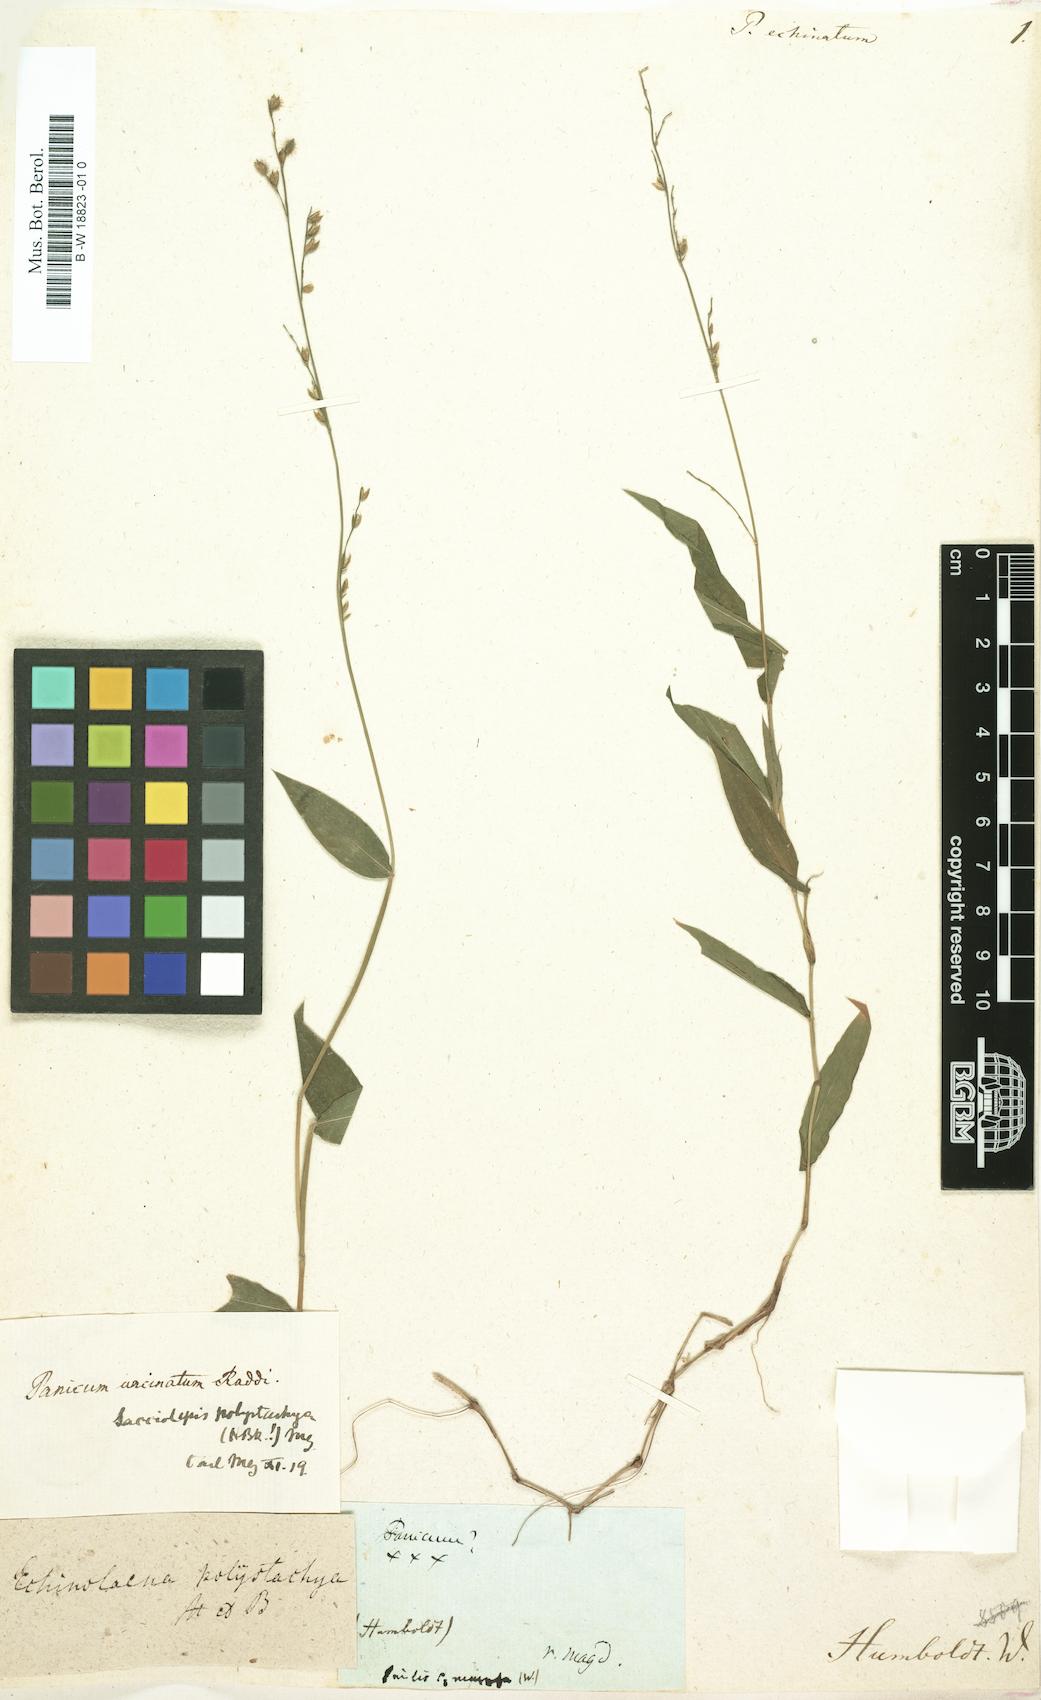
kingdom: Plantae
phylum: Tracheophyta
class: Liliopsida
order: Poales
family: Poaceae
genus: Echinochloa
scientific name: Echinochloa crus-galli
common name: Cockspur
